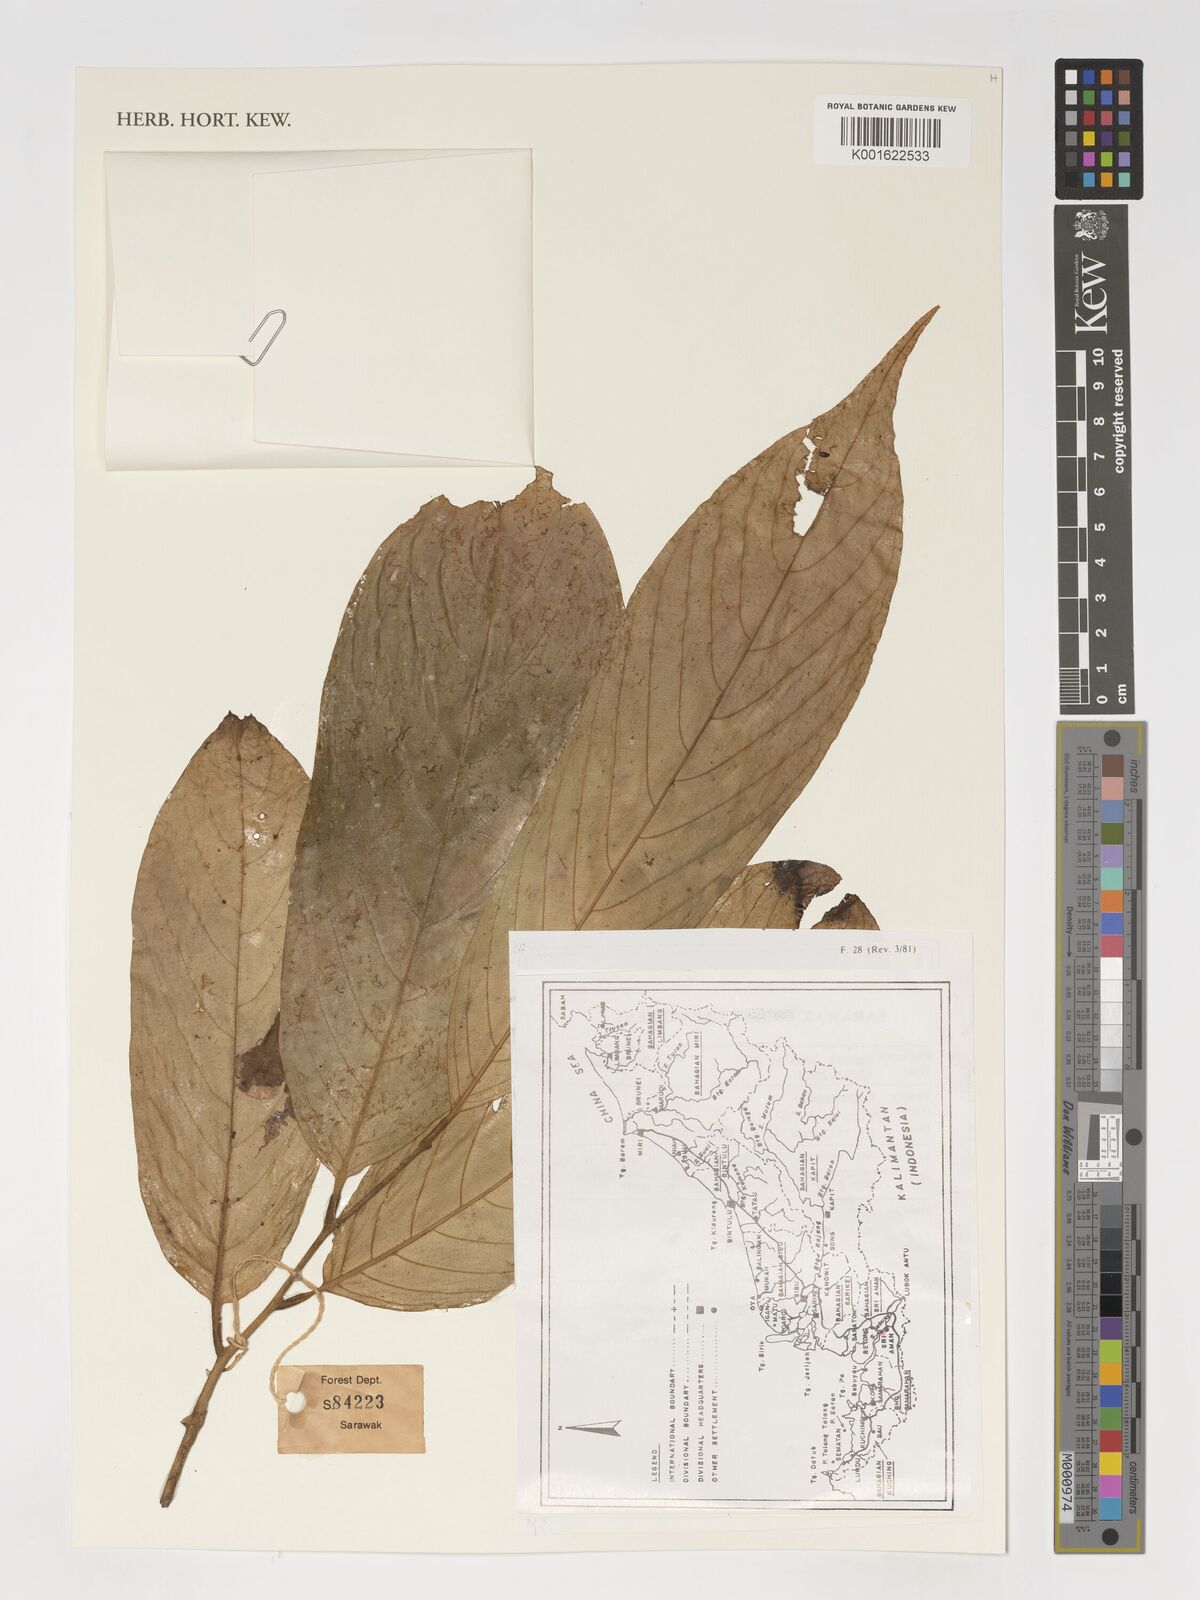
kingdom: Plantae
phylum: Tracheophyta
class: Magnoliopsida
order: Magnoliales
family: Annonaceae
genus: Monoon
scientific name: Monoon
